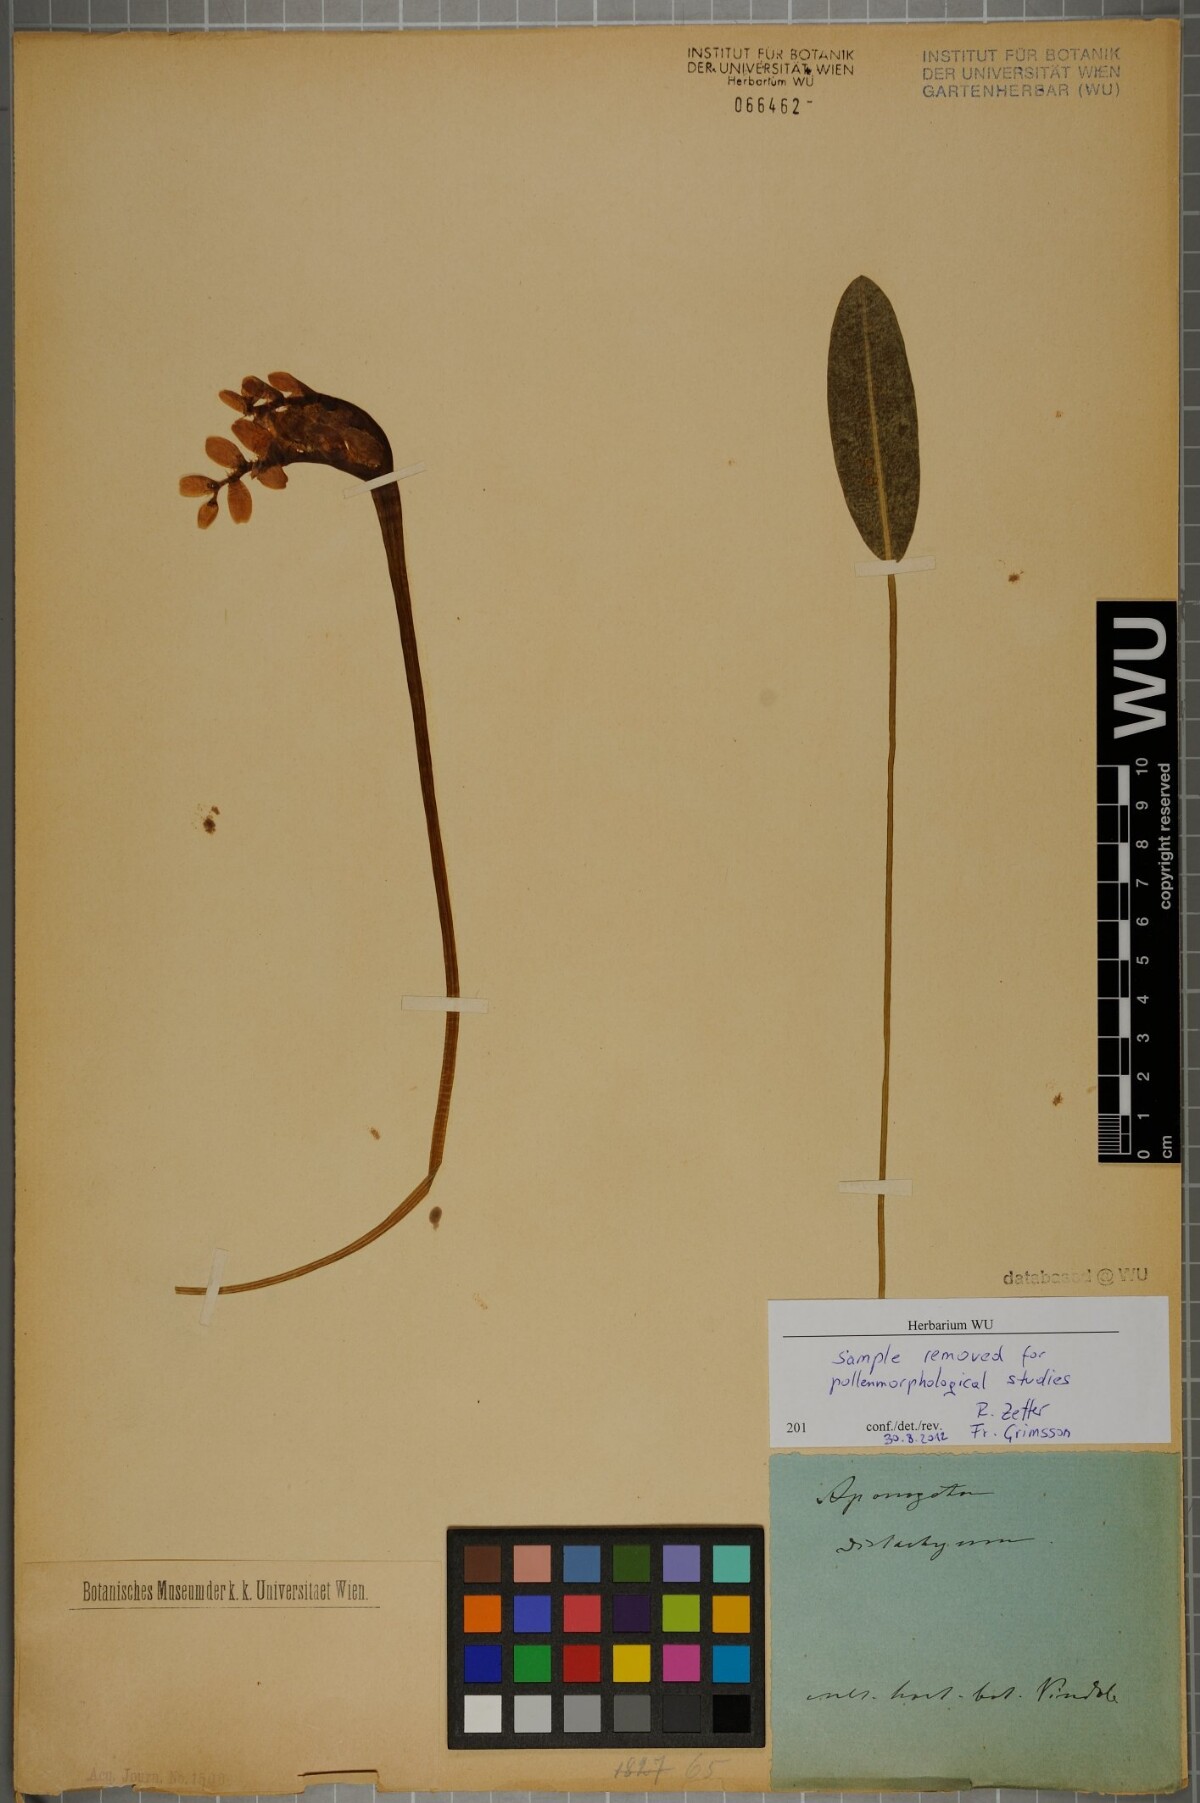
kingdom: Plantae
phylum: Tracheophyta
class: Liliopsida
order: Alismatales
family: Aponogetonaceae
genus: Aponogeton
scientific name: Aponogeton distachyos
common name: Cape-pondweed
